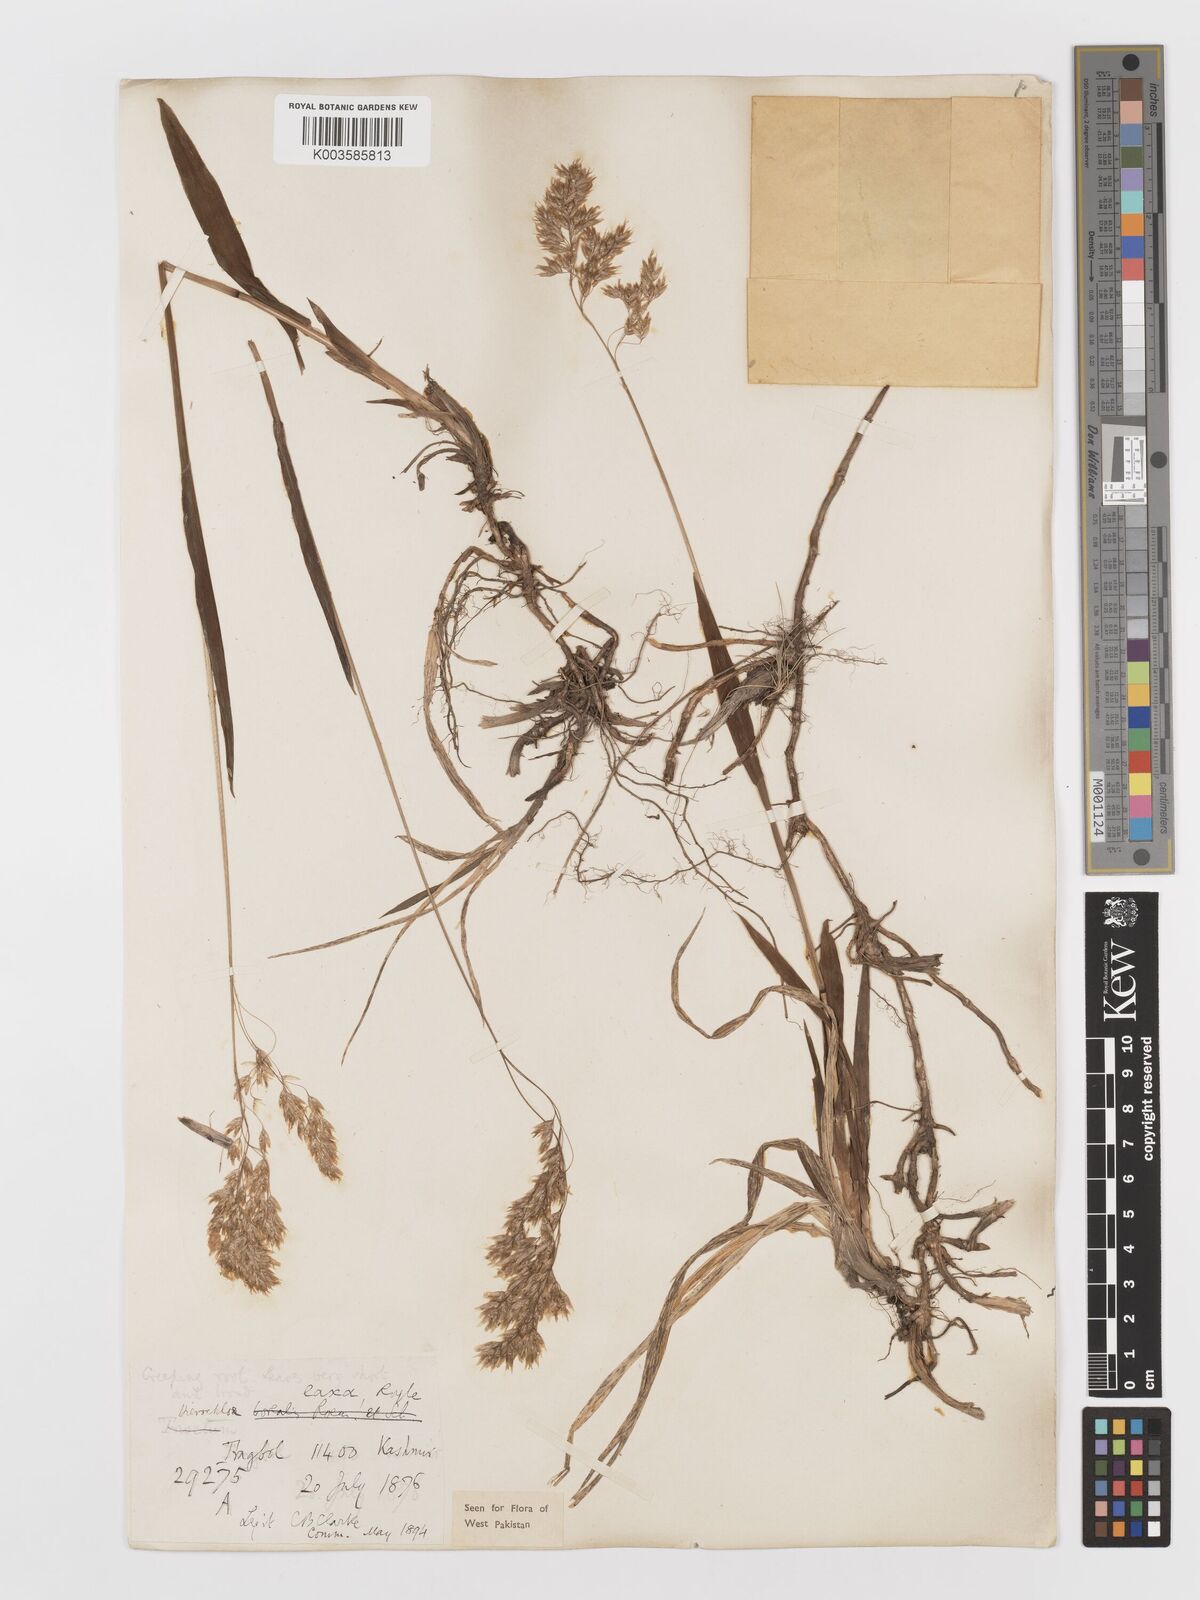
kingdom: Plantae
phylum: Tracheophyta
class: Liliopsida
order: Poales
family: Poaceae
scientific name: Poaceae
